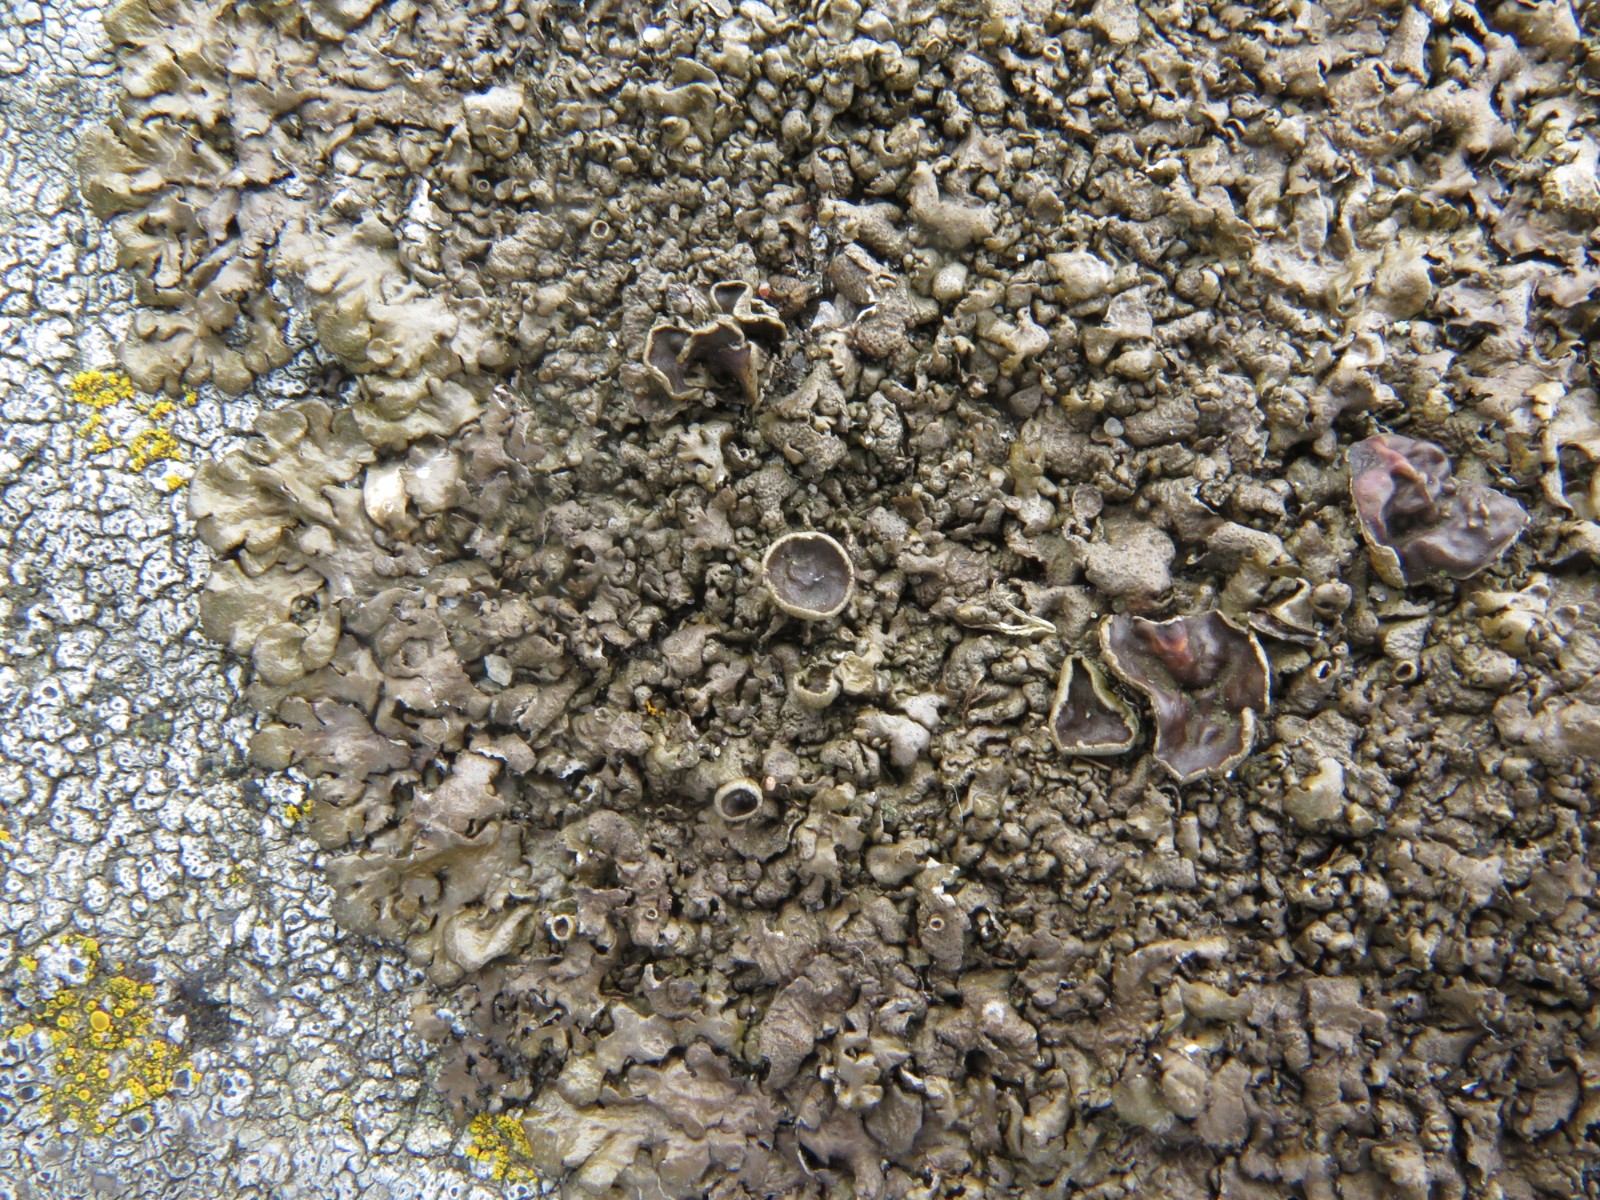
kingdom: Fungi
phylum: Ascomycota
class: Lecanoromycetes
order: Lecanorales
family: Parmeliaceae
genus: Xanthoparmelia
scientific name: Xanthoparmelia pulla
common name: mørkebrun skållav
